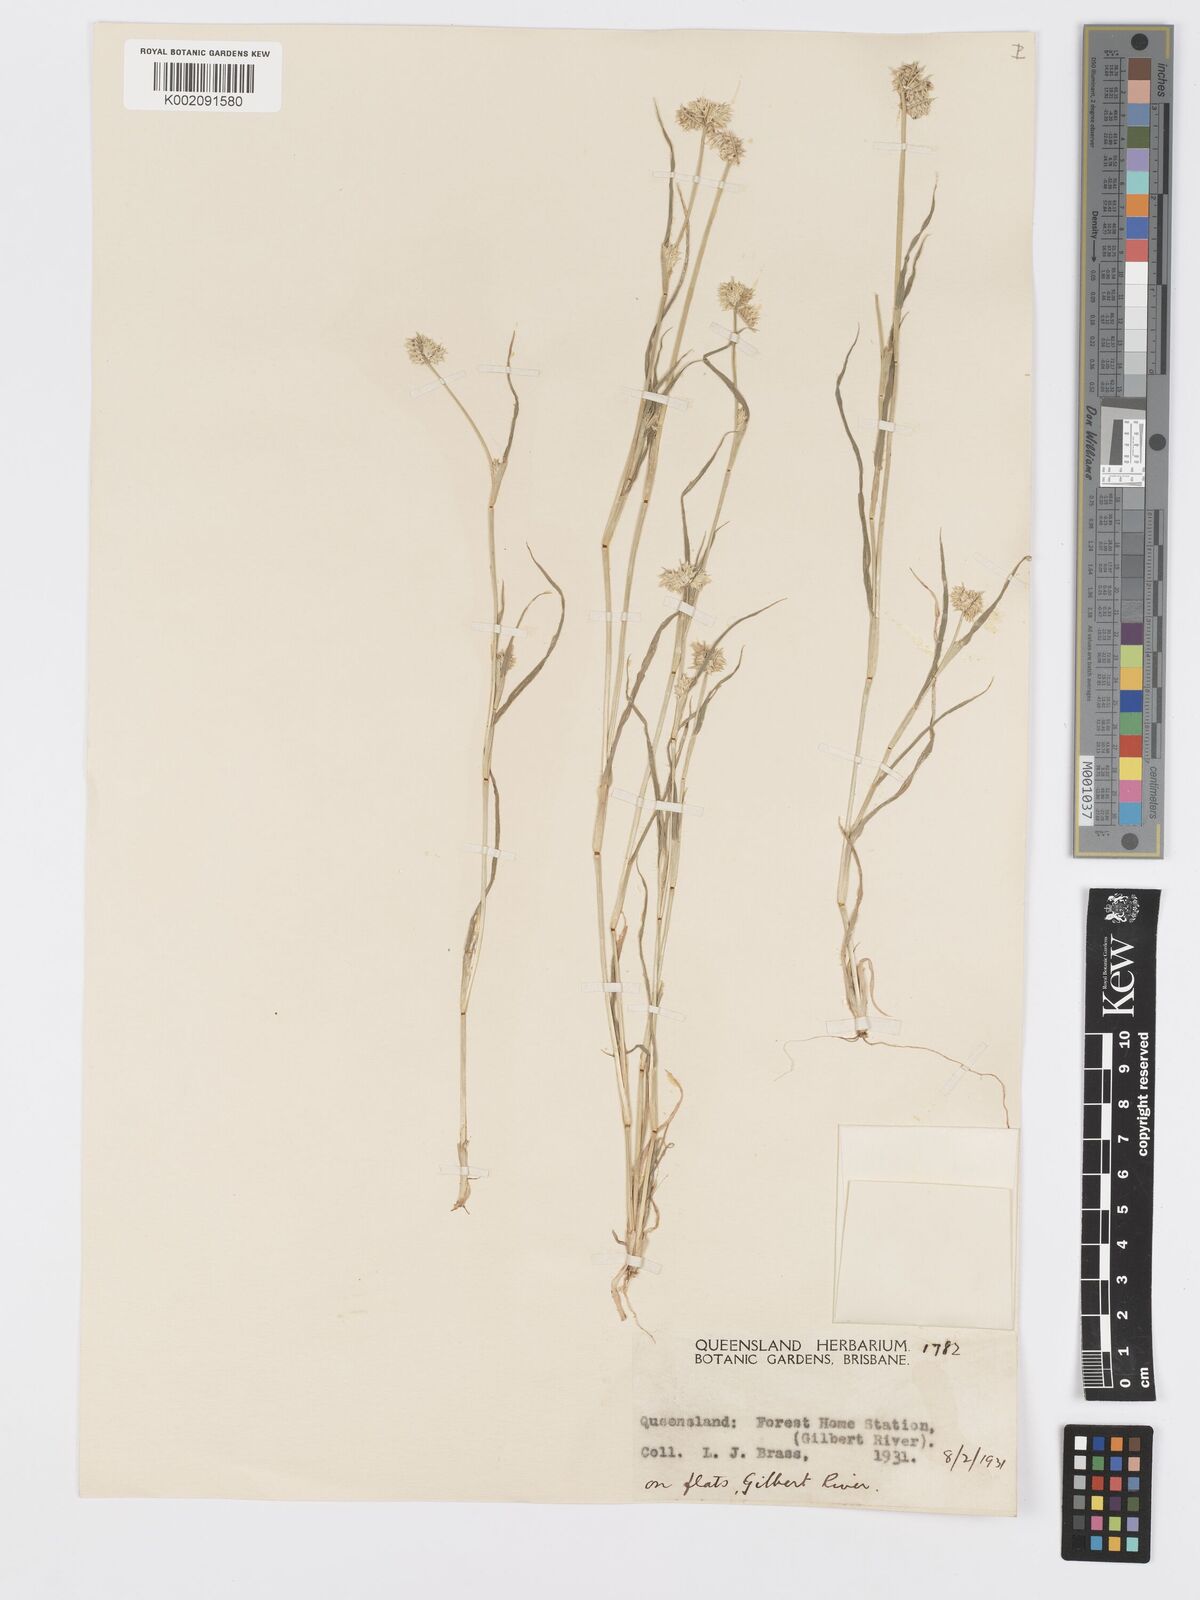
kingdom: Plantae
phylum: Tracheophyta
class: Liliopsida
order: Poales
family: Poaceae
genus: Dactyloctenium
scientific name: Dactyloctenium radulans
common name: Button-grass
